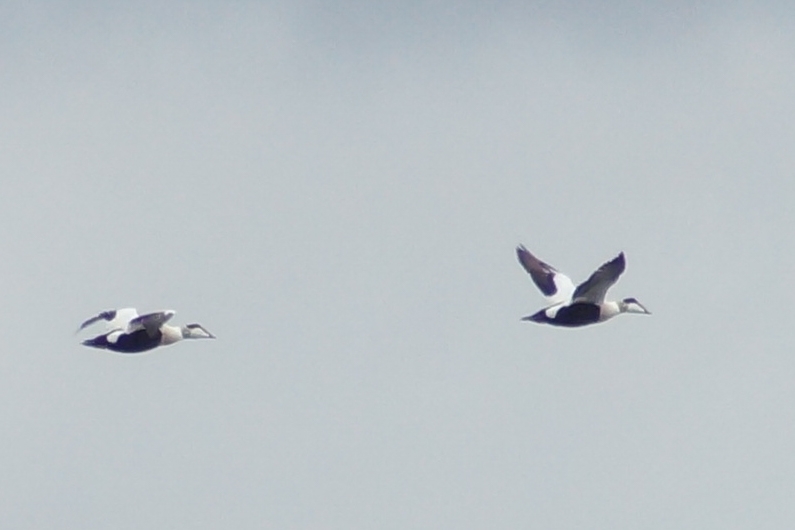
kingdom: Animalia
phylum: Chordata
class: Aves
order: Anseriformes
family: Anatidae
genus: Somateria
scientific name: Somateria mollissima
